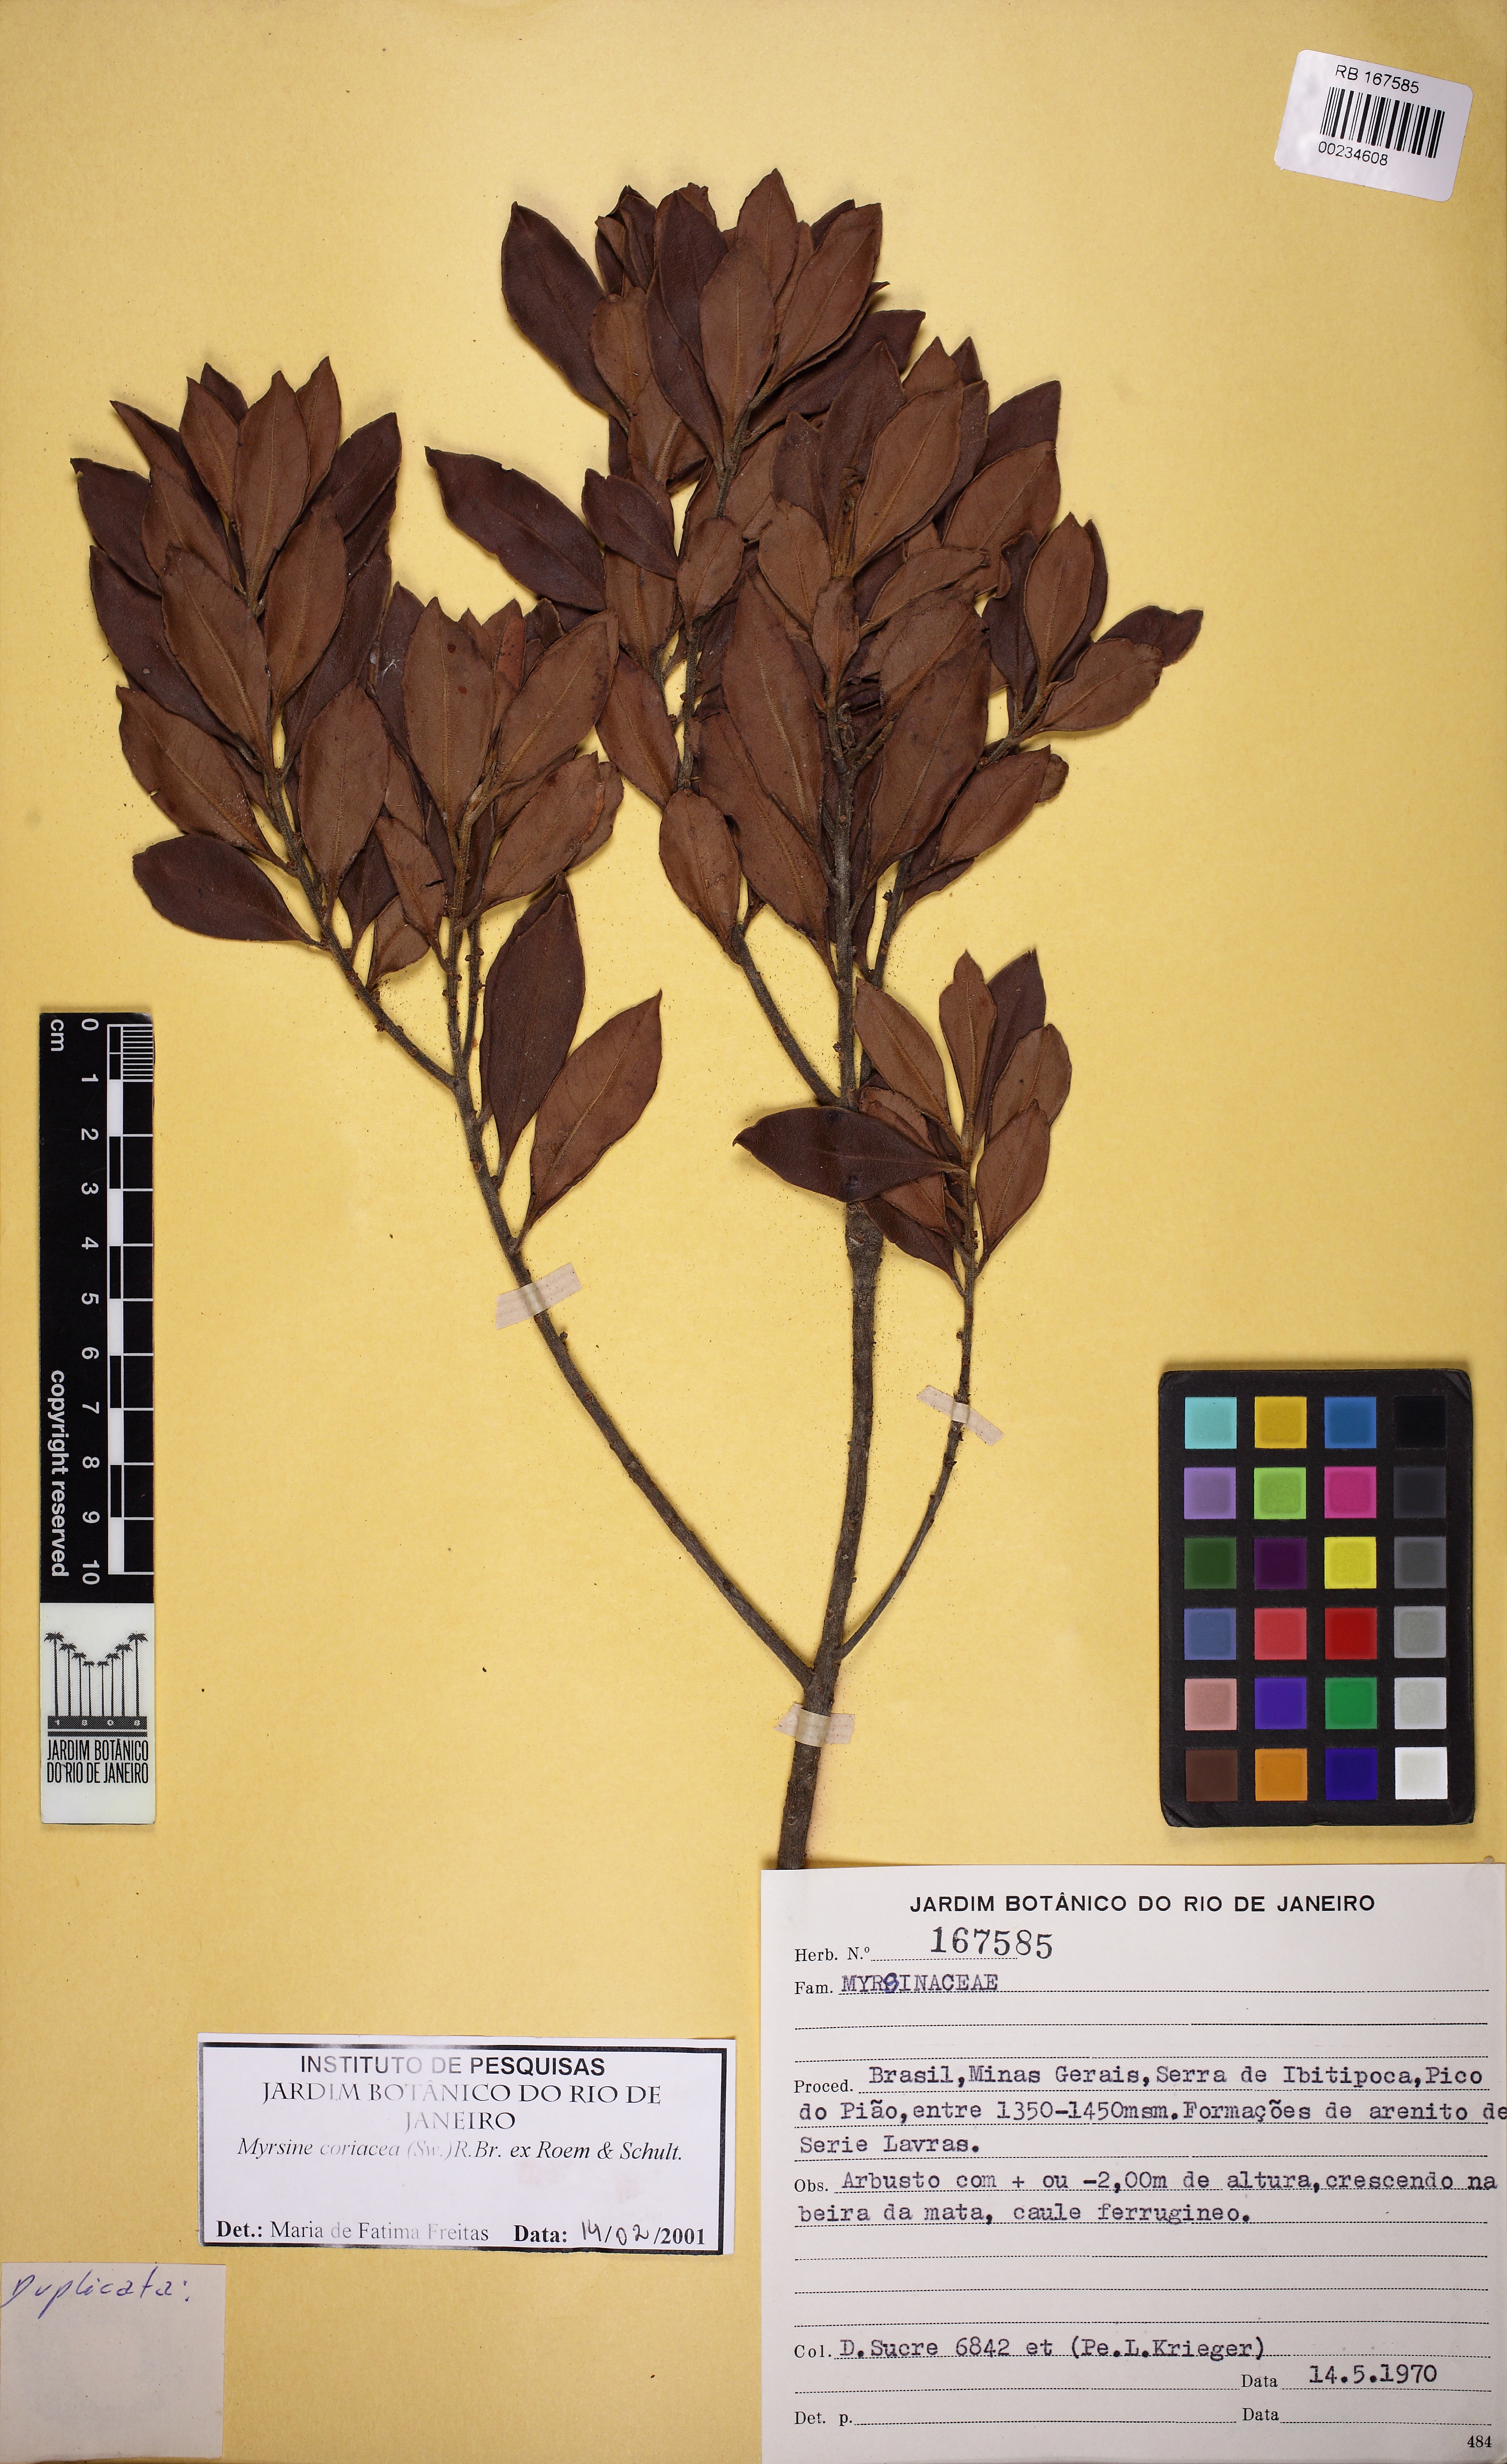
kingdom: Plantae
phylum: Tracheophyta
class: Magnoliopsida
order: Ericales
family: Primulaceae
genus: Myrsine
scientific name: Myrsine coriacea
